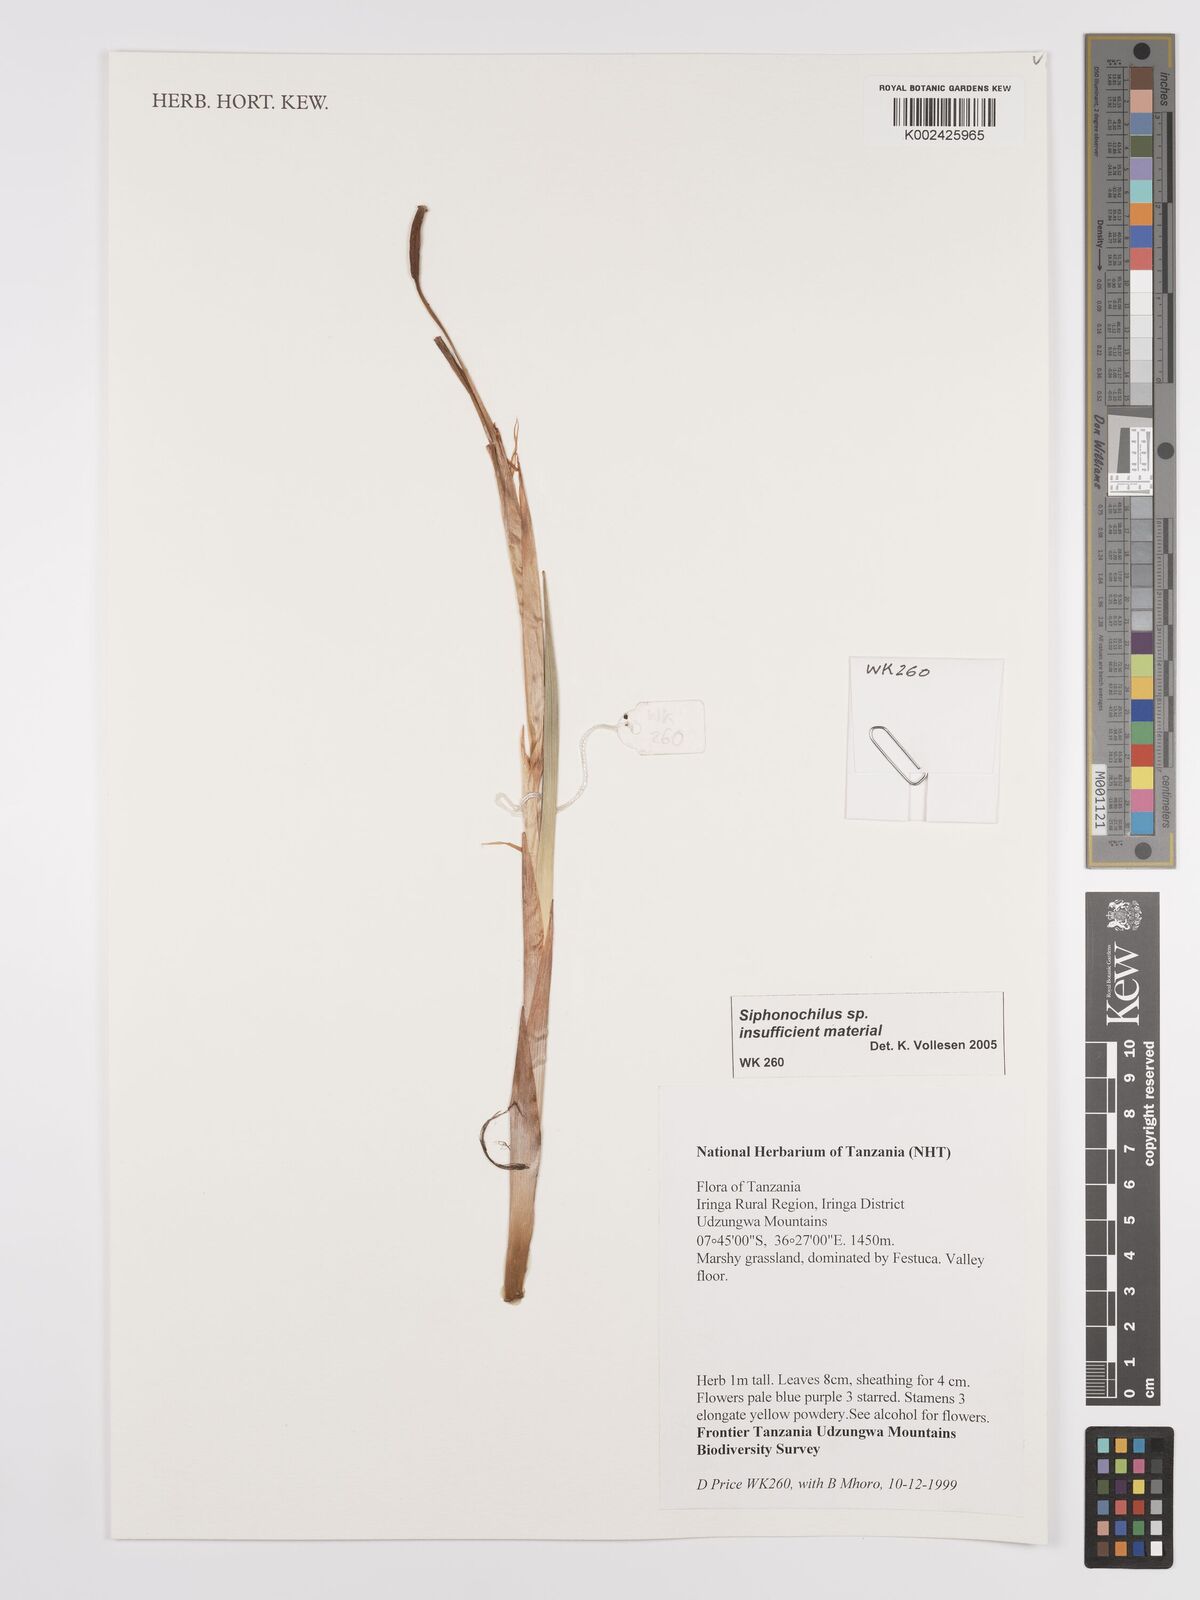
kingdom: Plantae
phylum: Tracheophyta
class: Liliopsida
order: Zingiberales
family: Zingiberaceae
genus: Siphonochilus
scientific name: Siphonochilus
